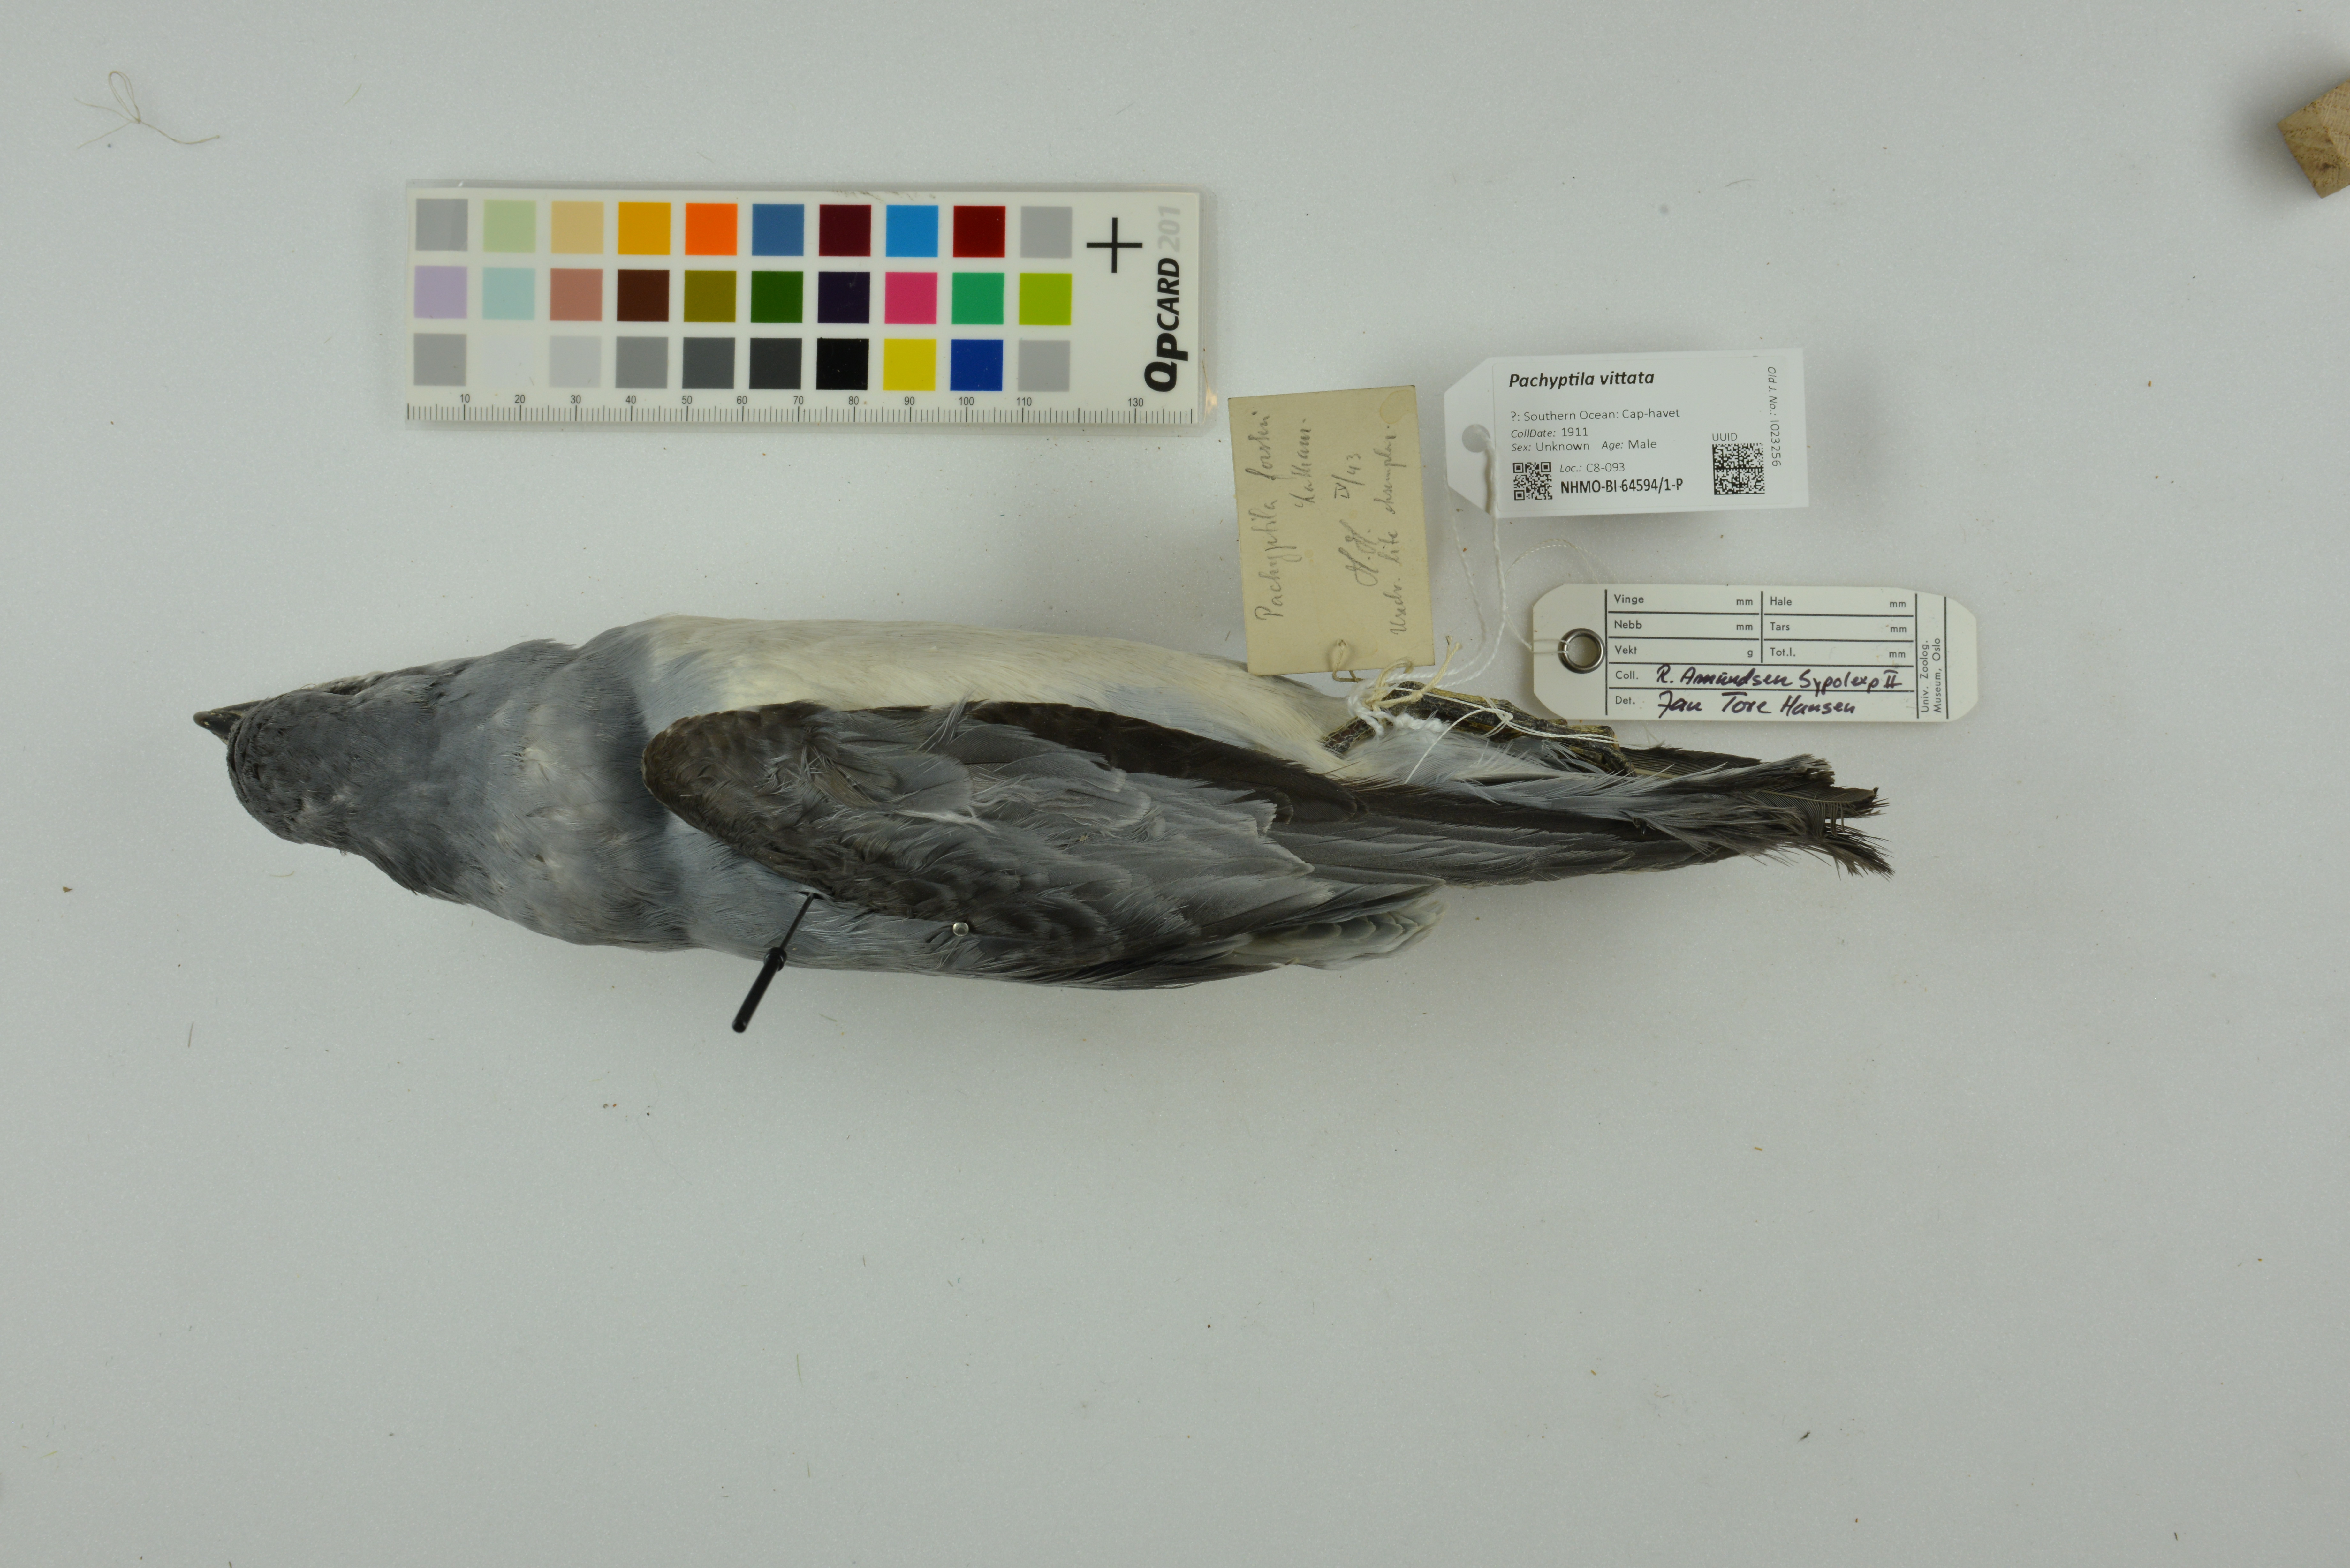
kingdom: Animalia
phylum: Chordata
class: Aves
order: Procellariiformes
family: Procellariidae
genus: Pachyptila
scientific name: Pachyptila vittata
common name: Broad-billed prion
